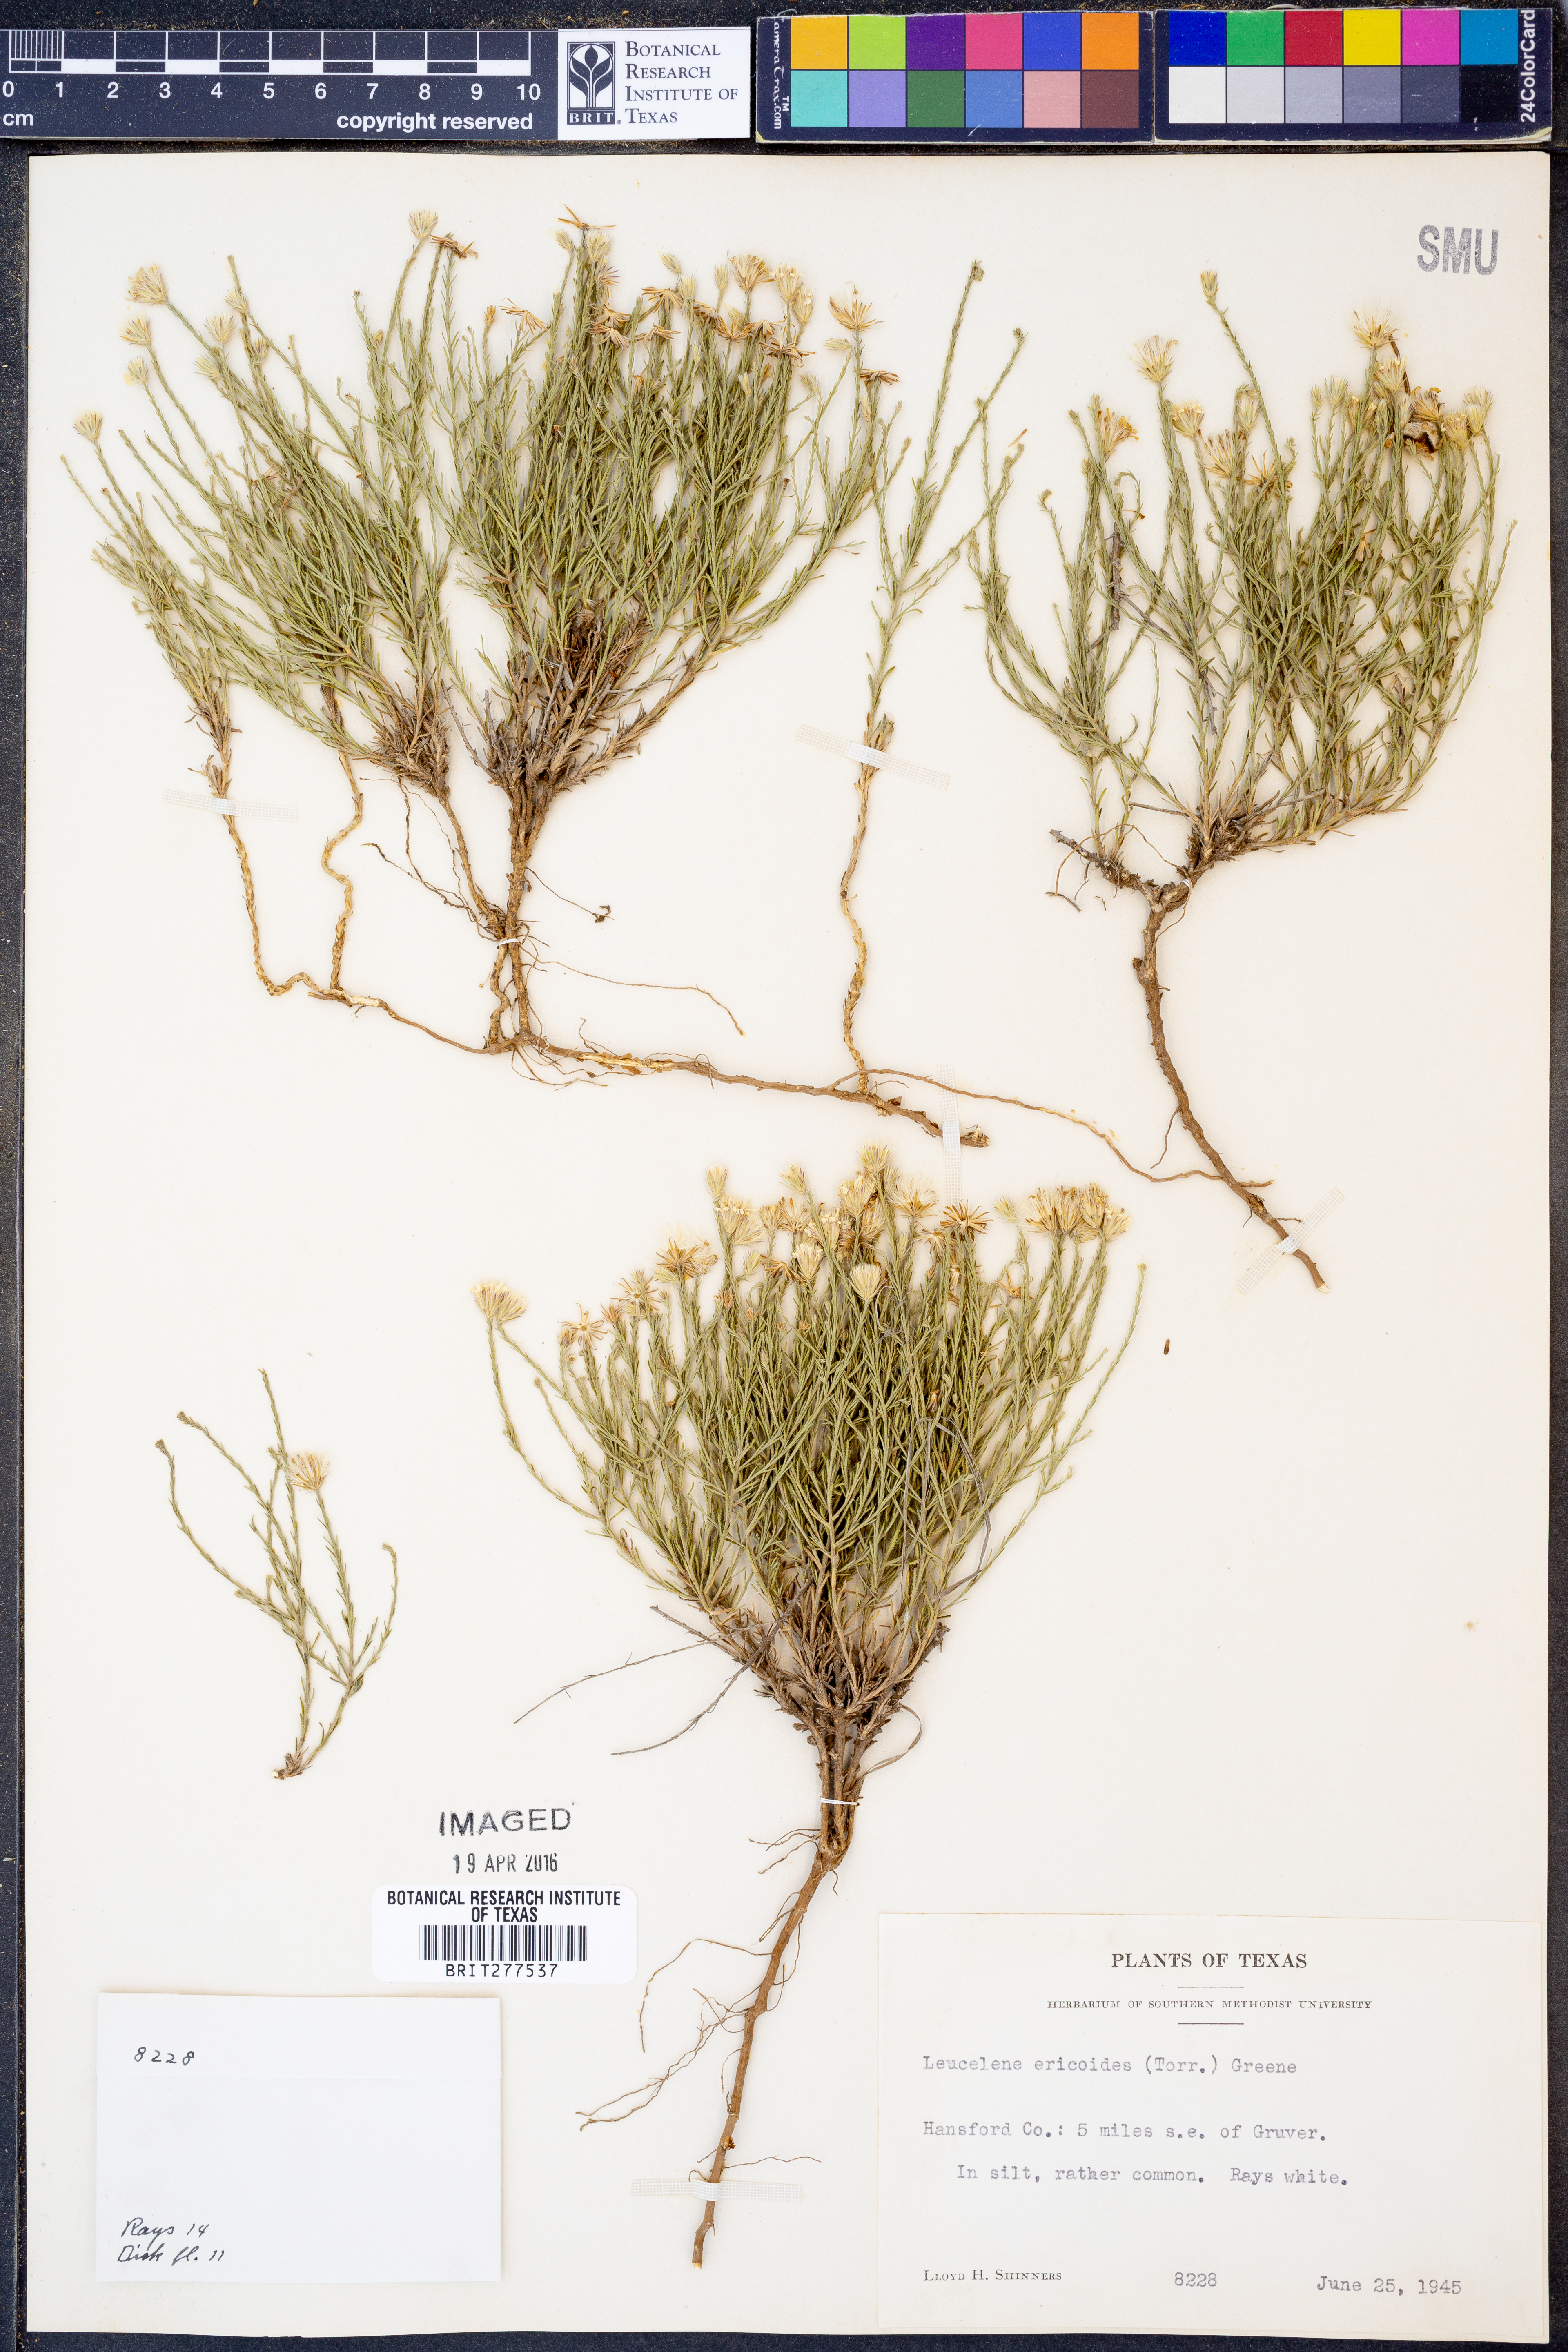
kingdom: Plantae
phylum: Tracheophyta
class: Magnoliopsida
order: Asterales
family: Asteraceae
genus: Chaetopappa
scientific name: Chaetopappa ericoides
